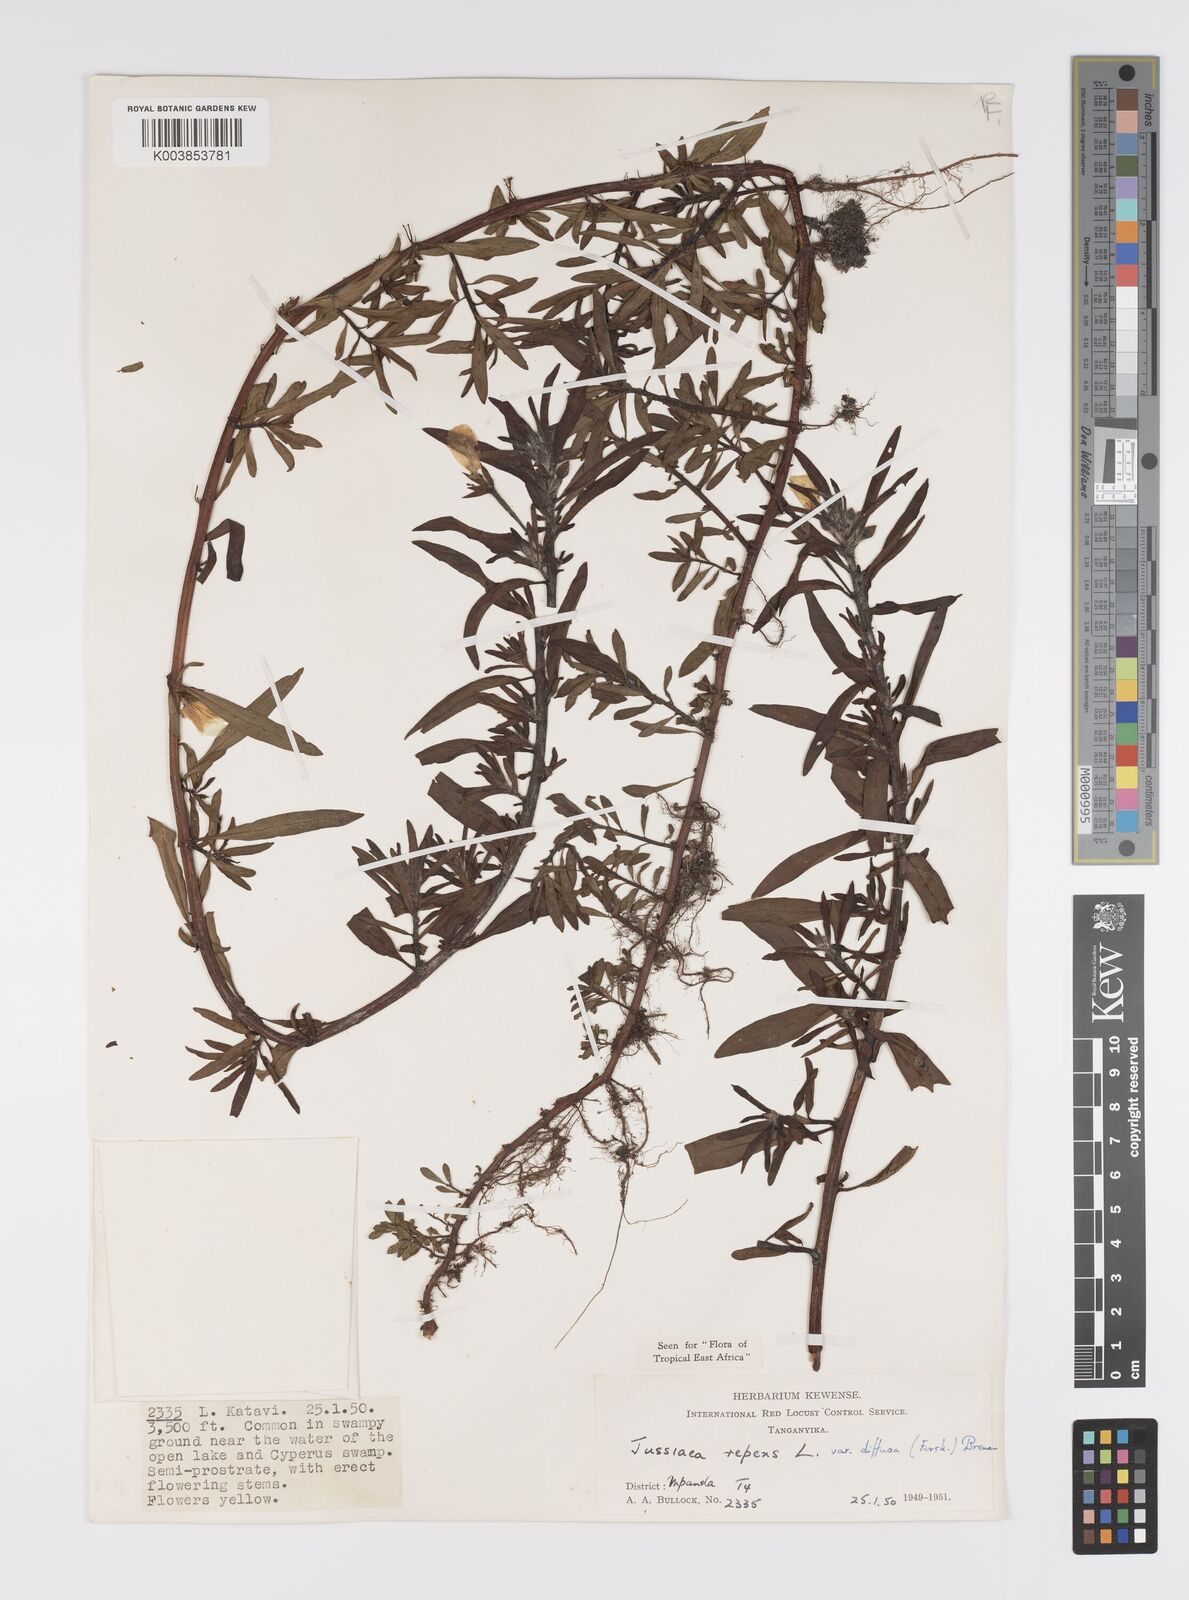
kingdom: Plantae
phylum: Tracheophyta
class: Magnoliopsida
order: Myrtales
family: Onagraceae
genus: Ludwigia
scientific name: Ludwigia repens
